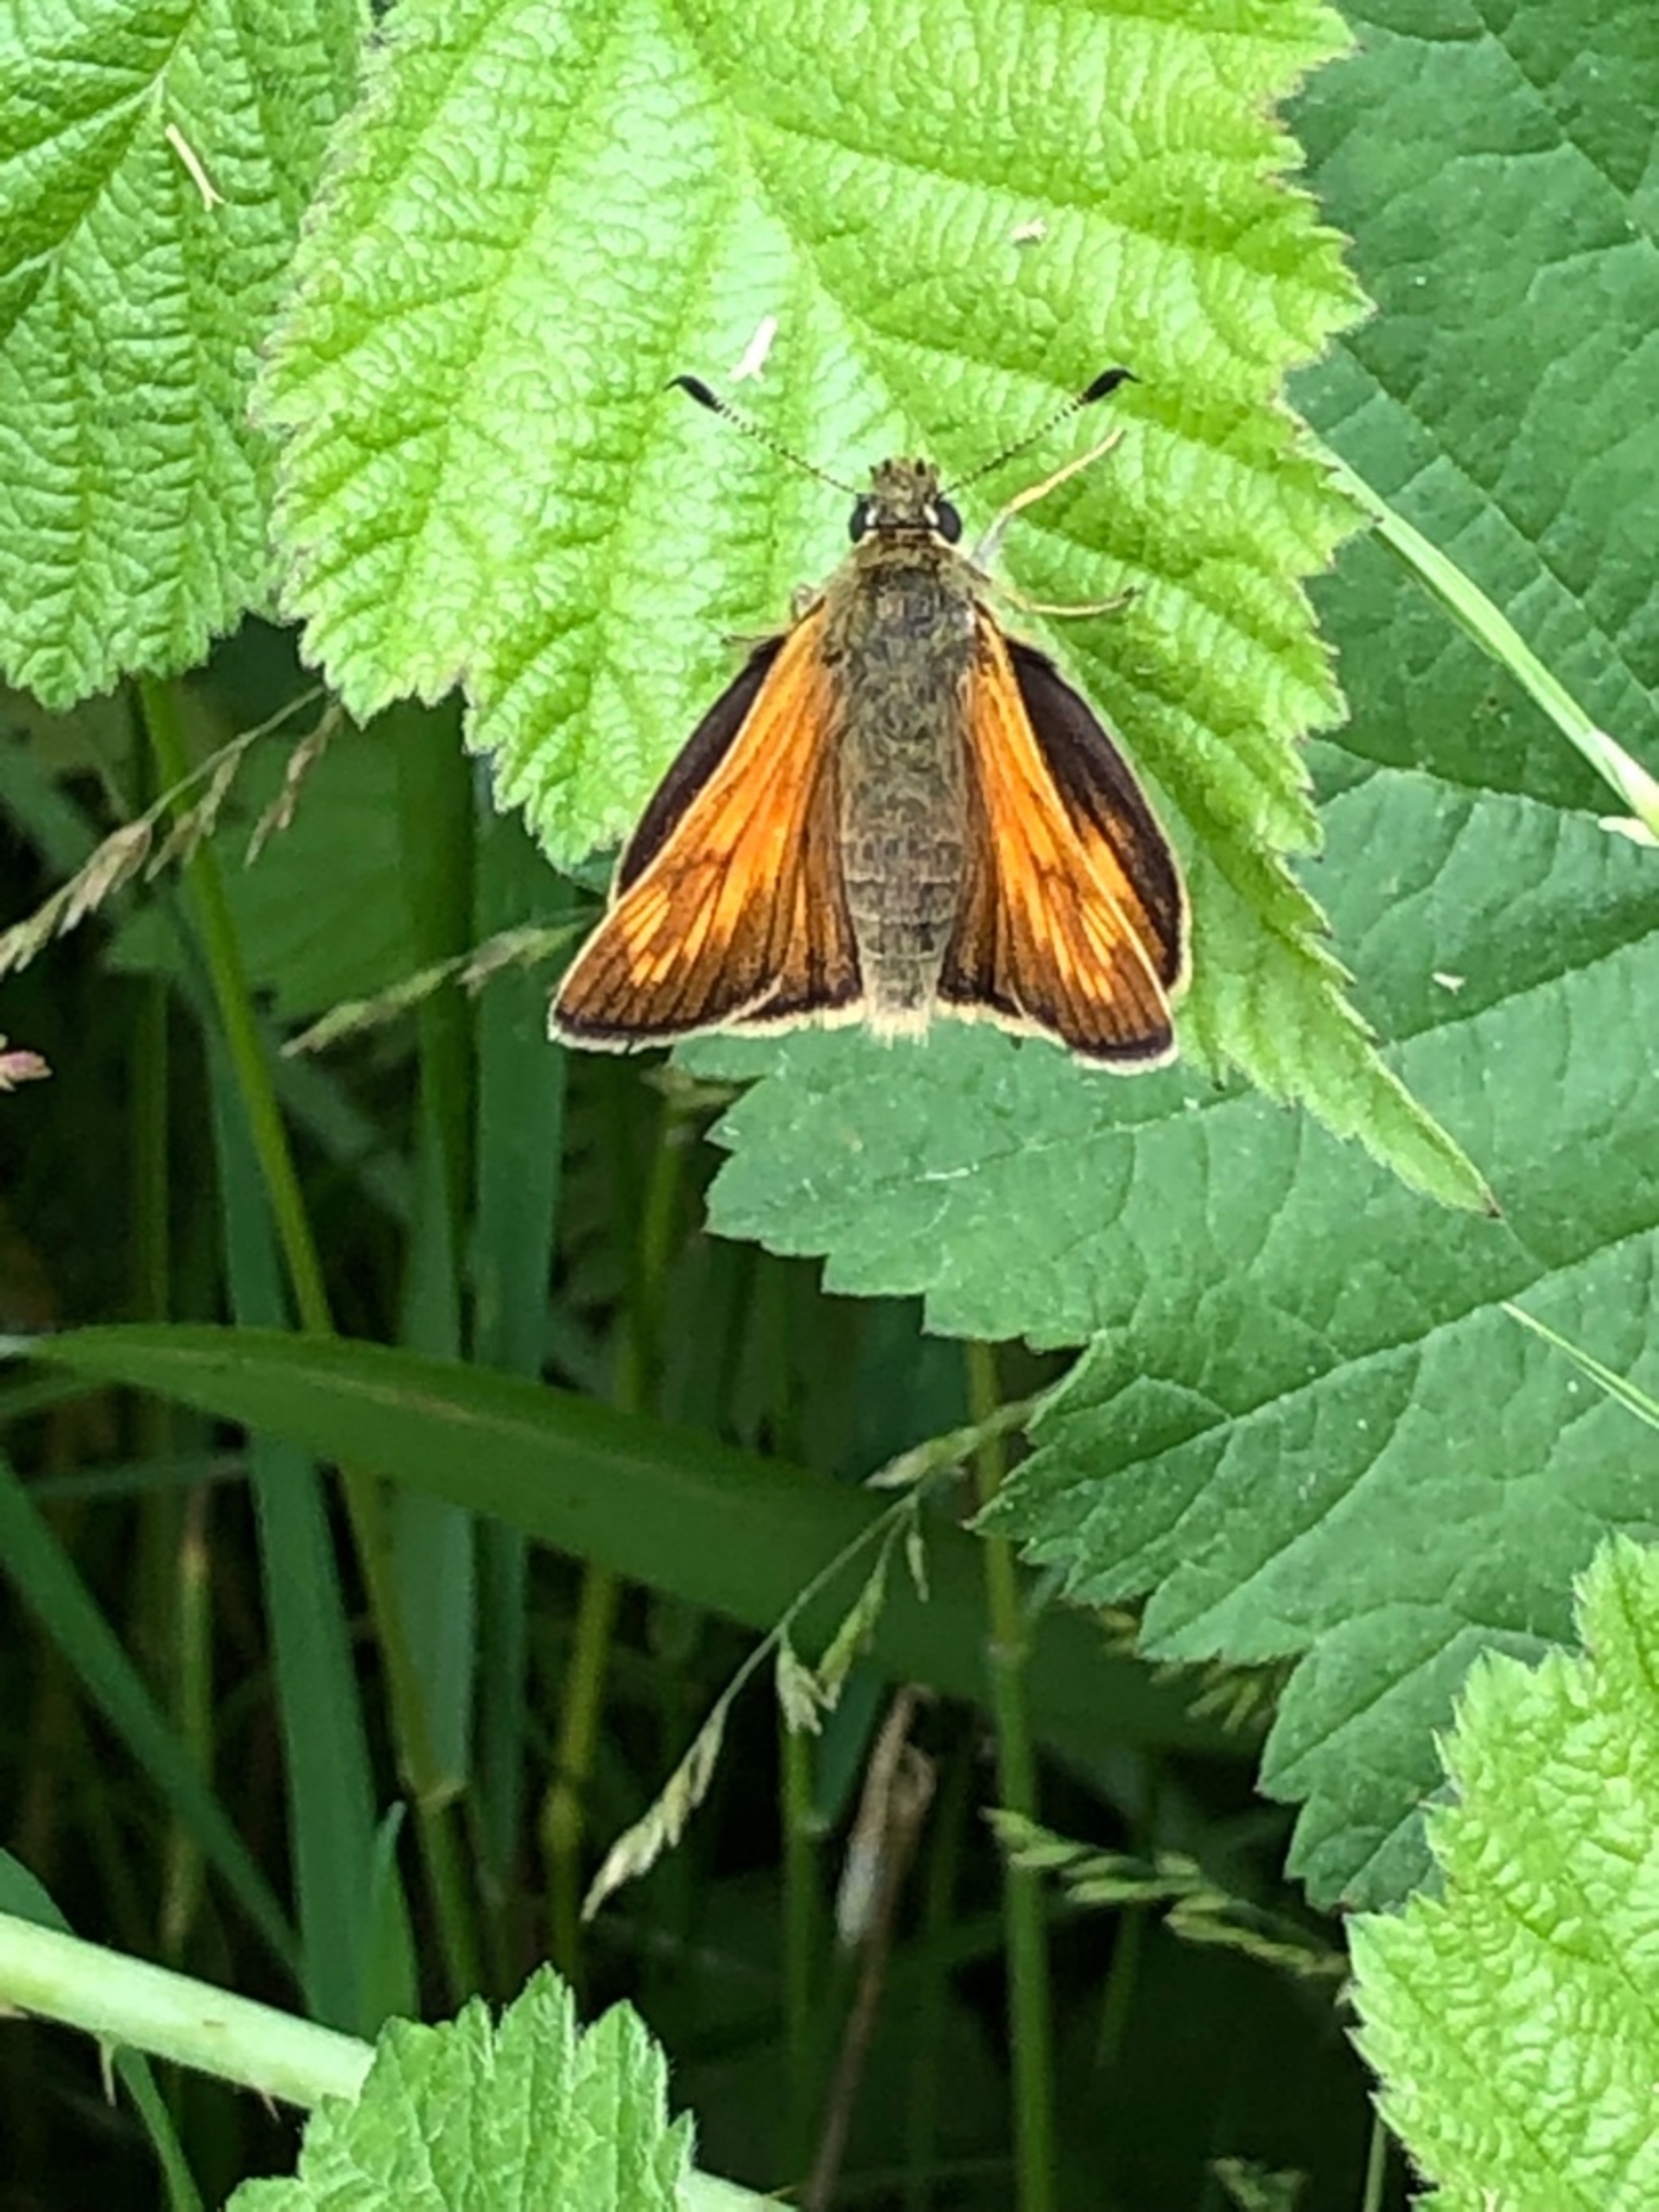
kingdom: Animalia
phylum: Arthropoda
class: Insecta
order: Lepidoptera
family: Hesperiidae
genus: Ochlodes
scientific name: Ochlodes venata
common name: Stor bredpande
